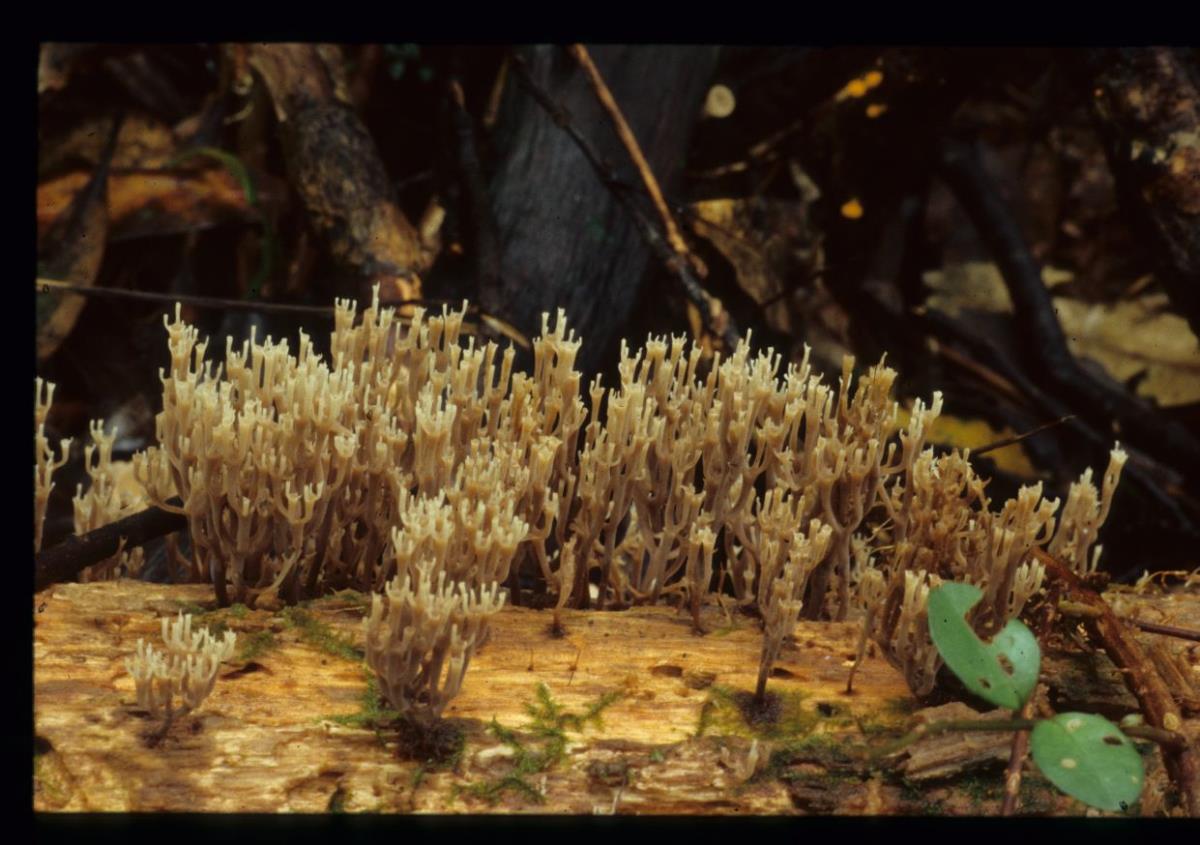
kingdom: Fungi
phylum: Basidiomycota
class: Agaricomycetes
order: Russulales
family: Auriscalpiaceae
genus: Artomyces
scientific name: Artomyces colensoi
